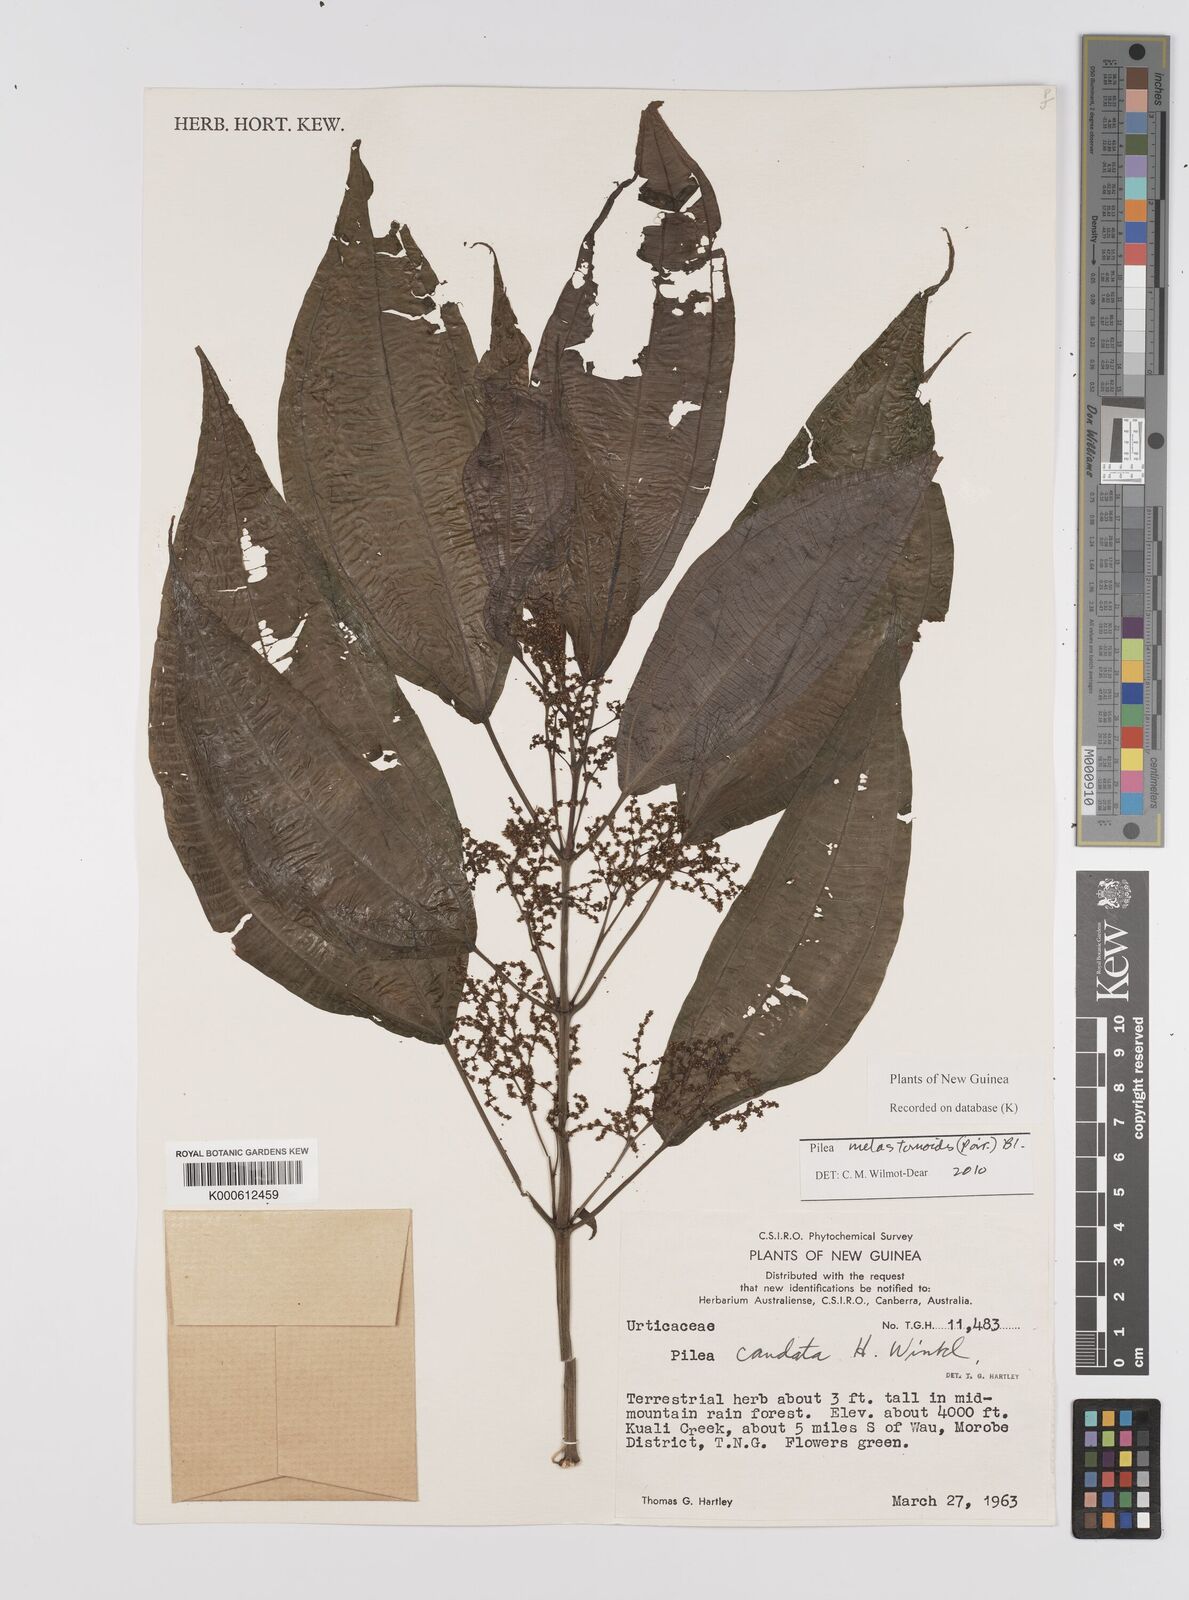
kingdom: Plantae
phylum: Tracheophyta
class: Magnoliopsida
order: Rosales
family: Urticaceae
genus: Pilea
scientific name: Pilea
